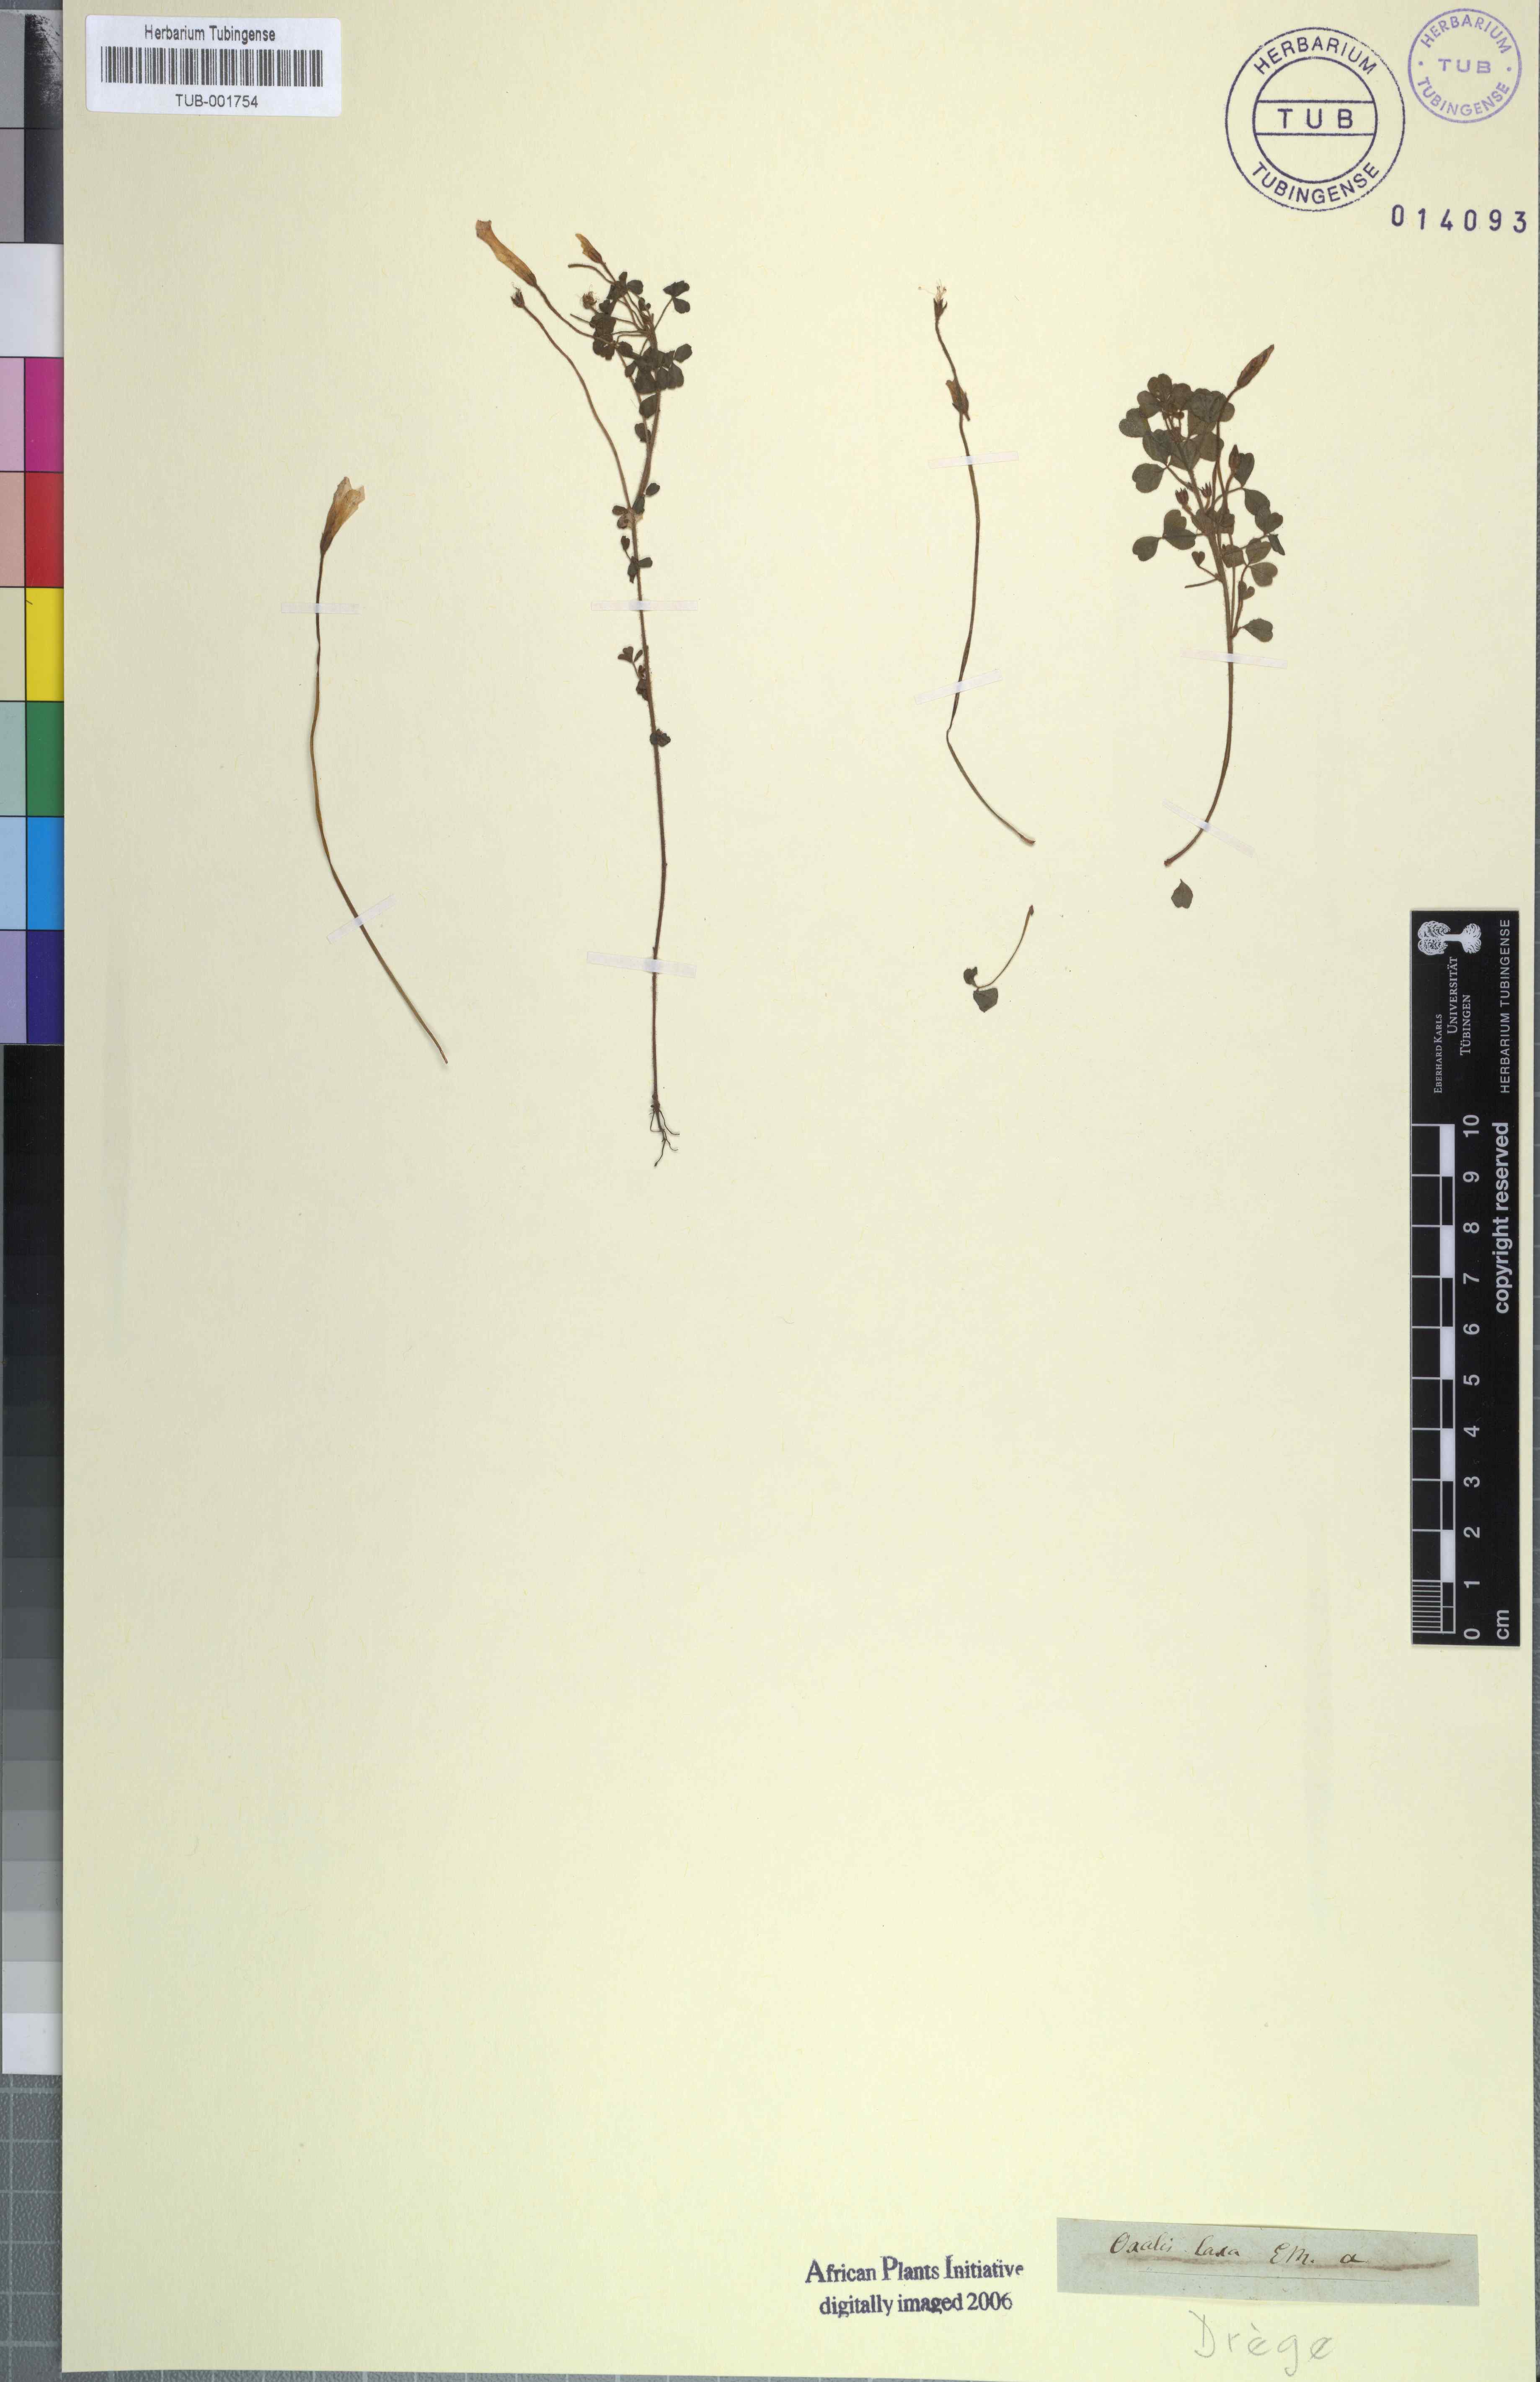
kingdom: Plantae
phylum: Tracheophyta
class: Magnoliopsida
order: Oxalidales
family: Oxalidaceae
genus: Oxalis
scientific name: Oxalis ebracteata
